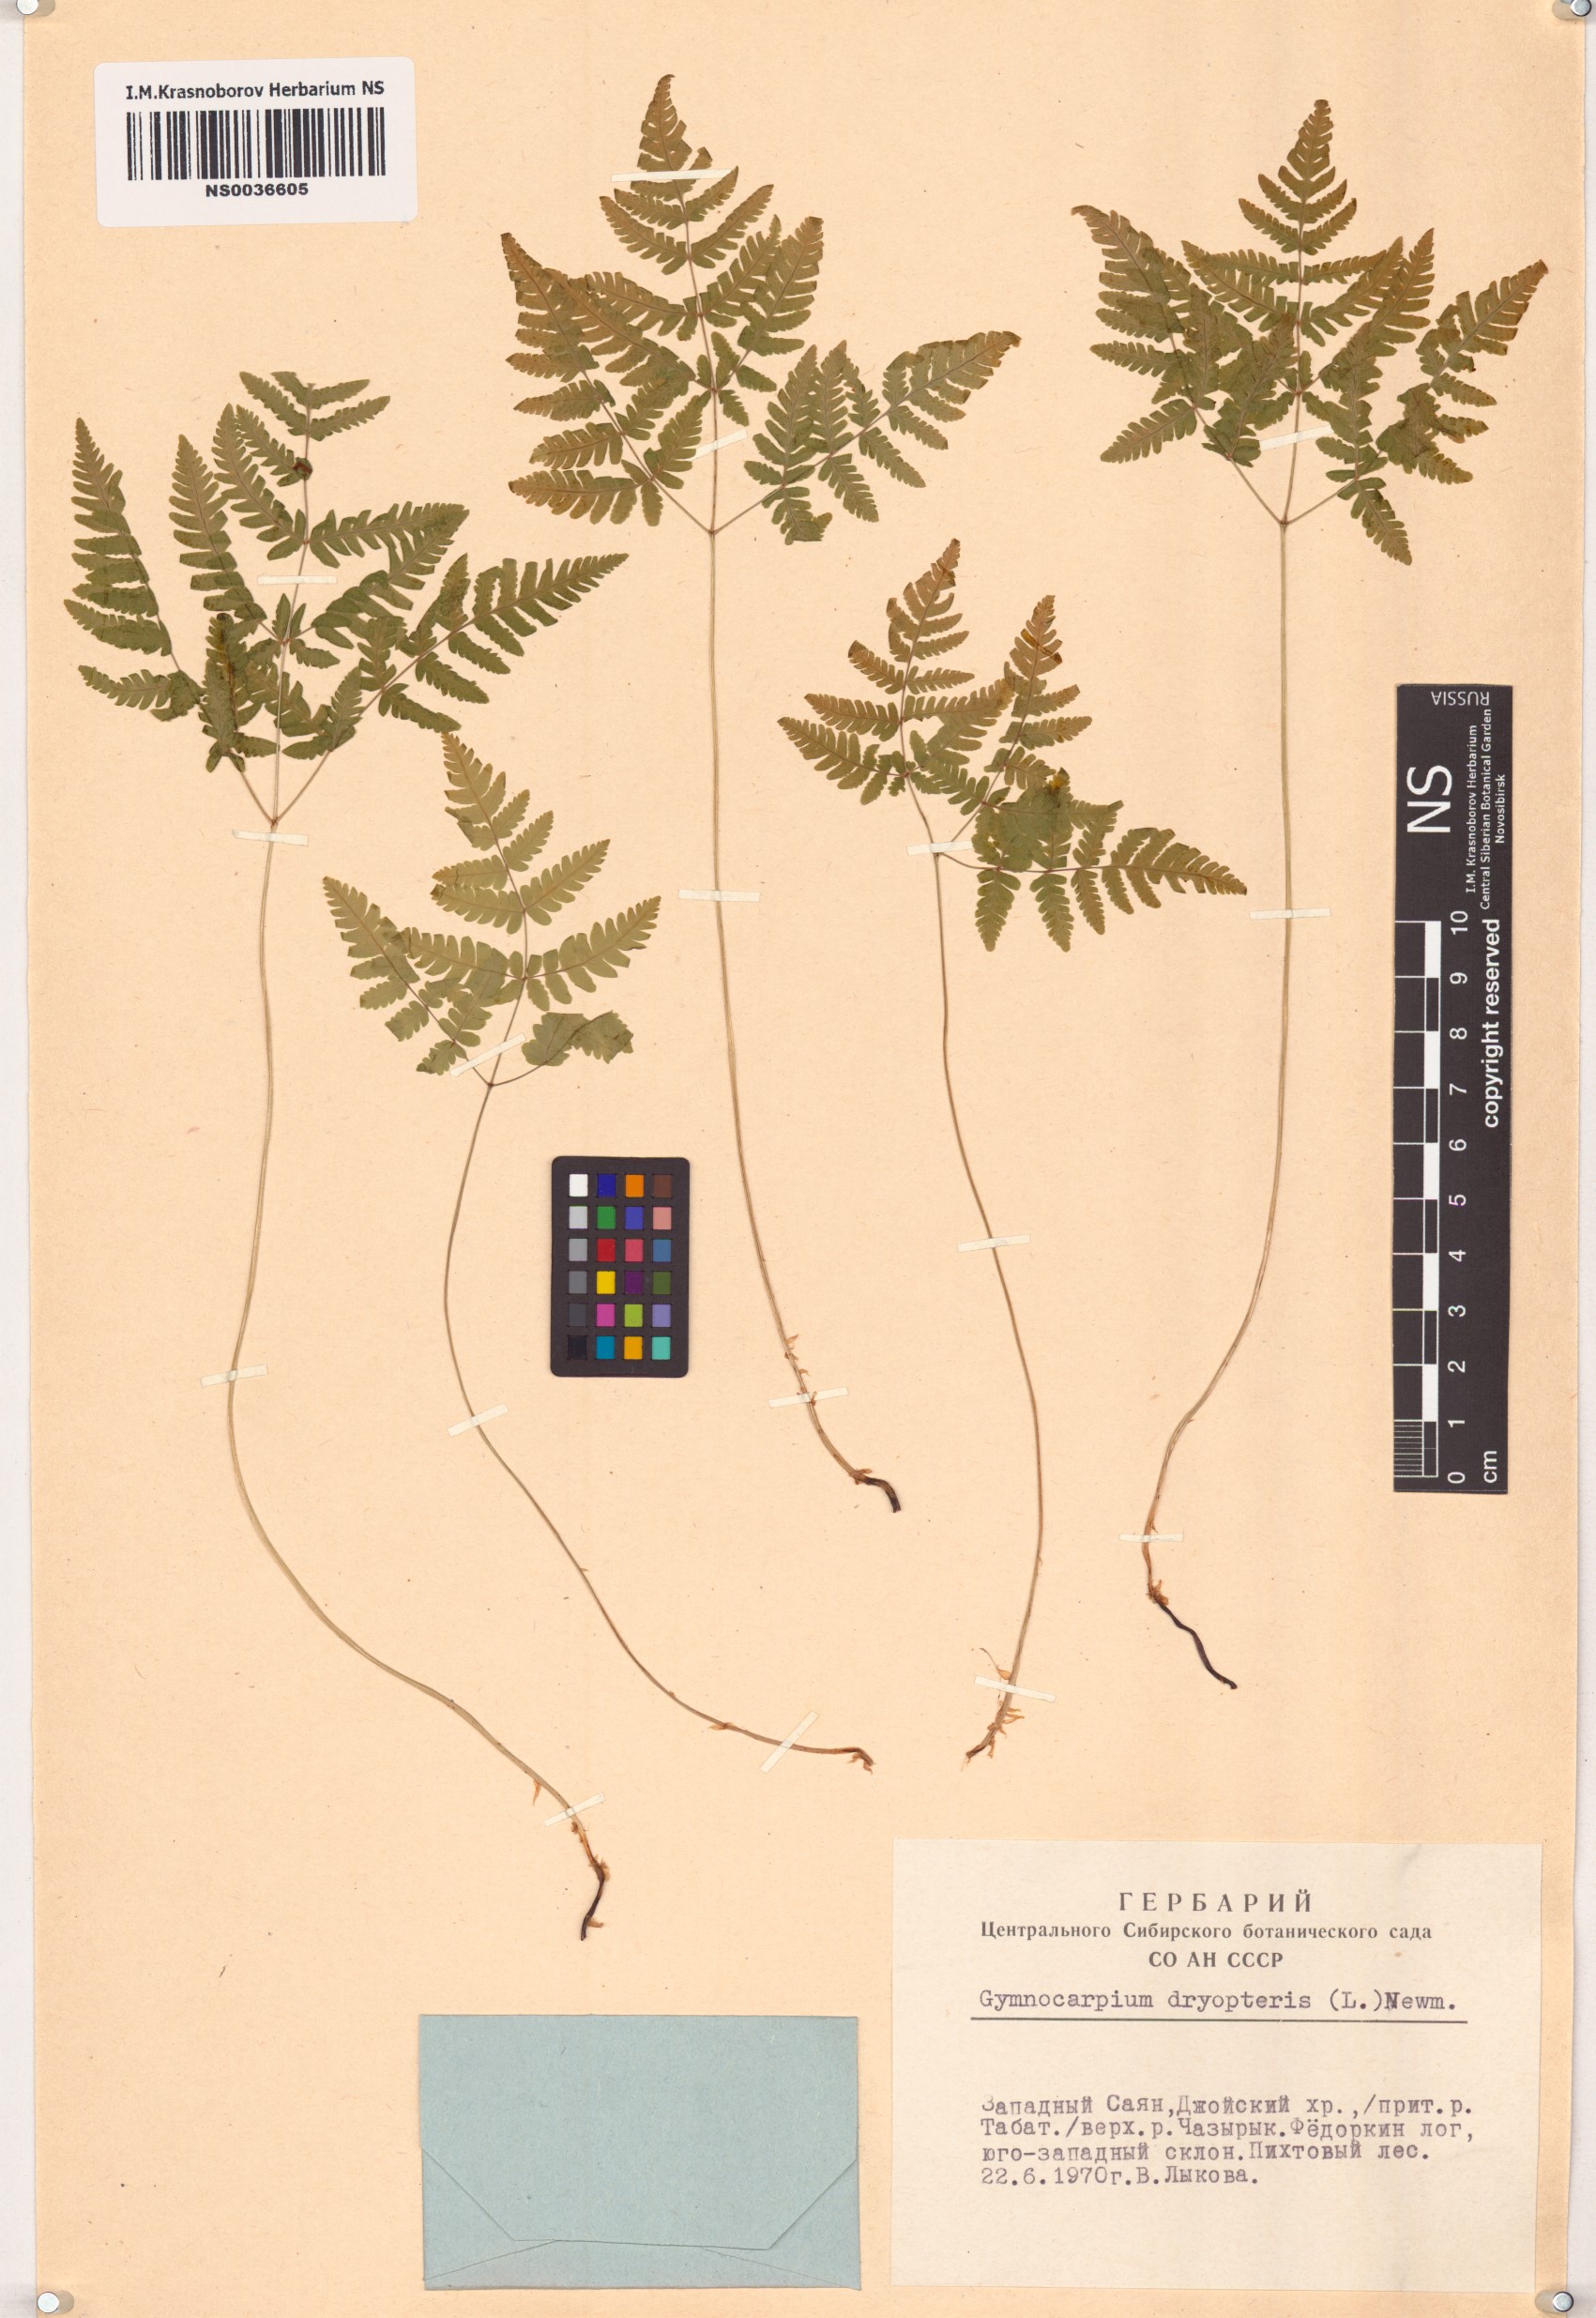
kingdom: Plantae
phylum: Tracheophyta
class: Polypodiopsida
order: Polypodiales
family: Cystopteridaceae
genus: Gymnocarpium
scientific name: Gymnocarpium dryopteris
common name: Oak fern
